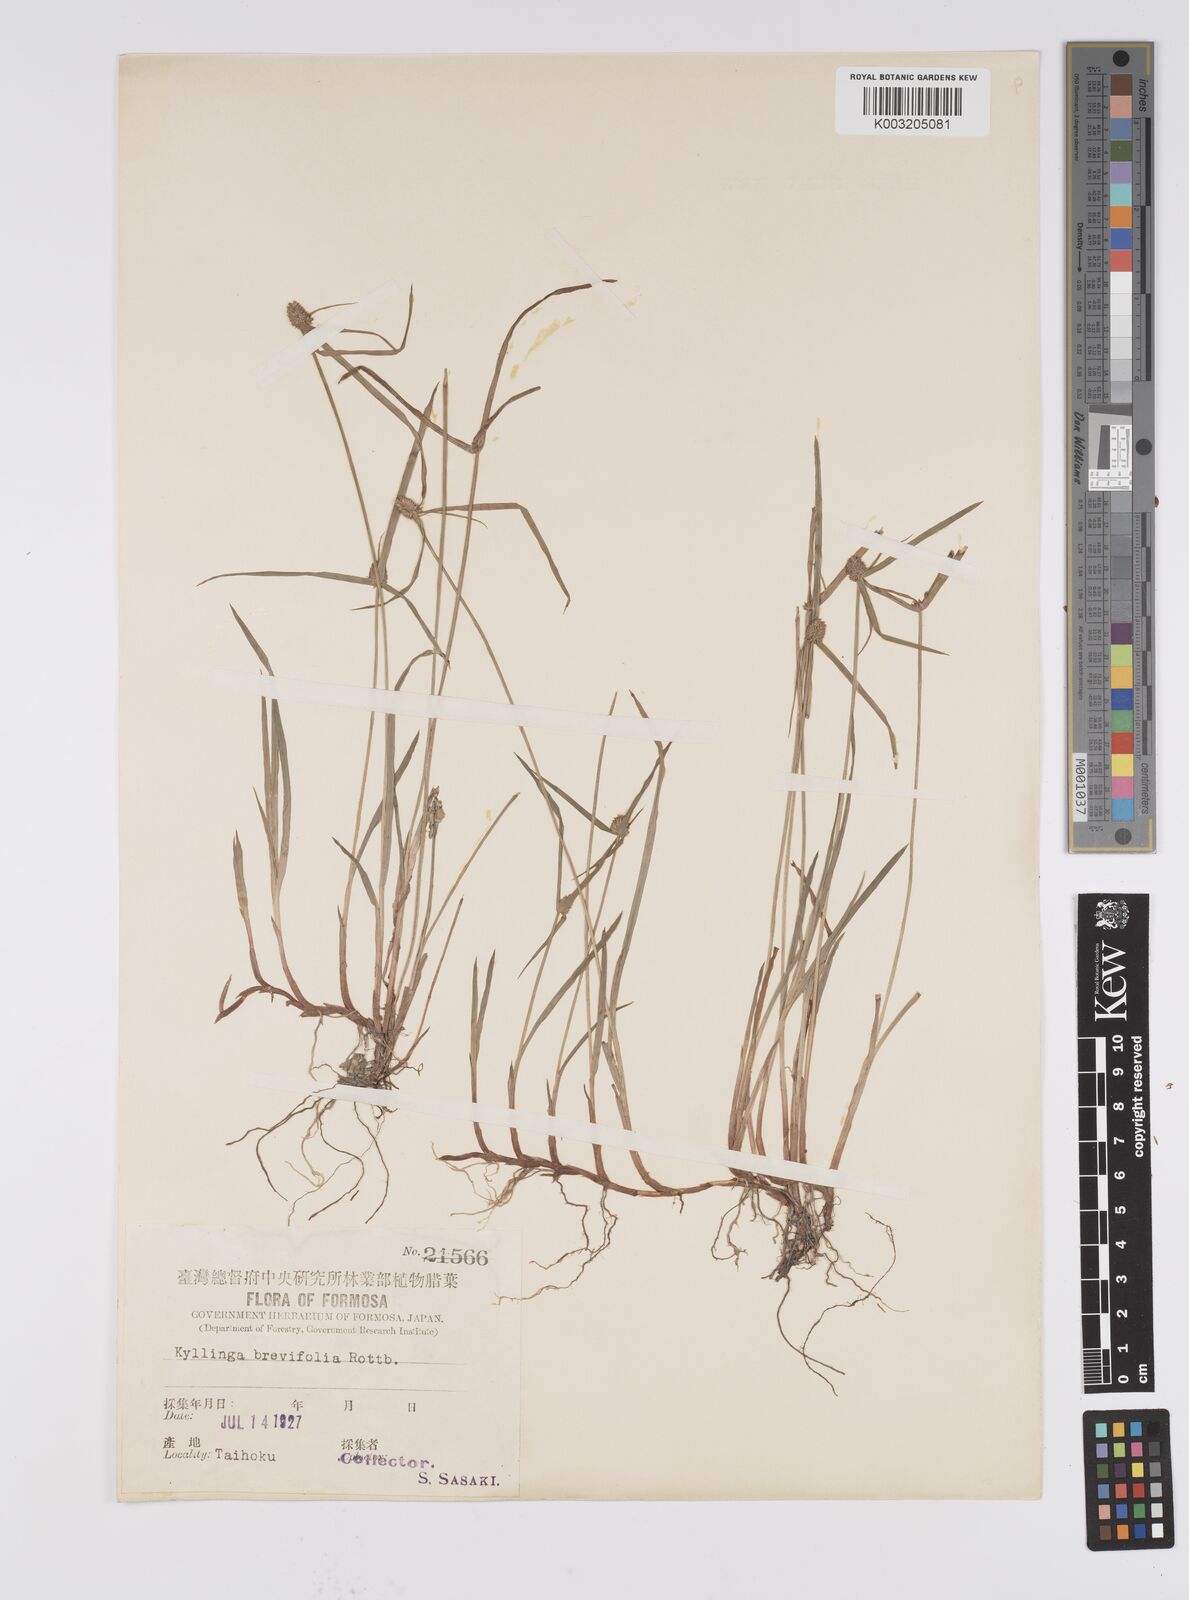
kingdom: Plantae
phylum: Tracheophyta
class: Liliopsida
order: Poales
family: Cyperaceae
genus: Cyperus
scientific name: Cyperus brevifolius
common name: Globe kyllinga
